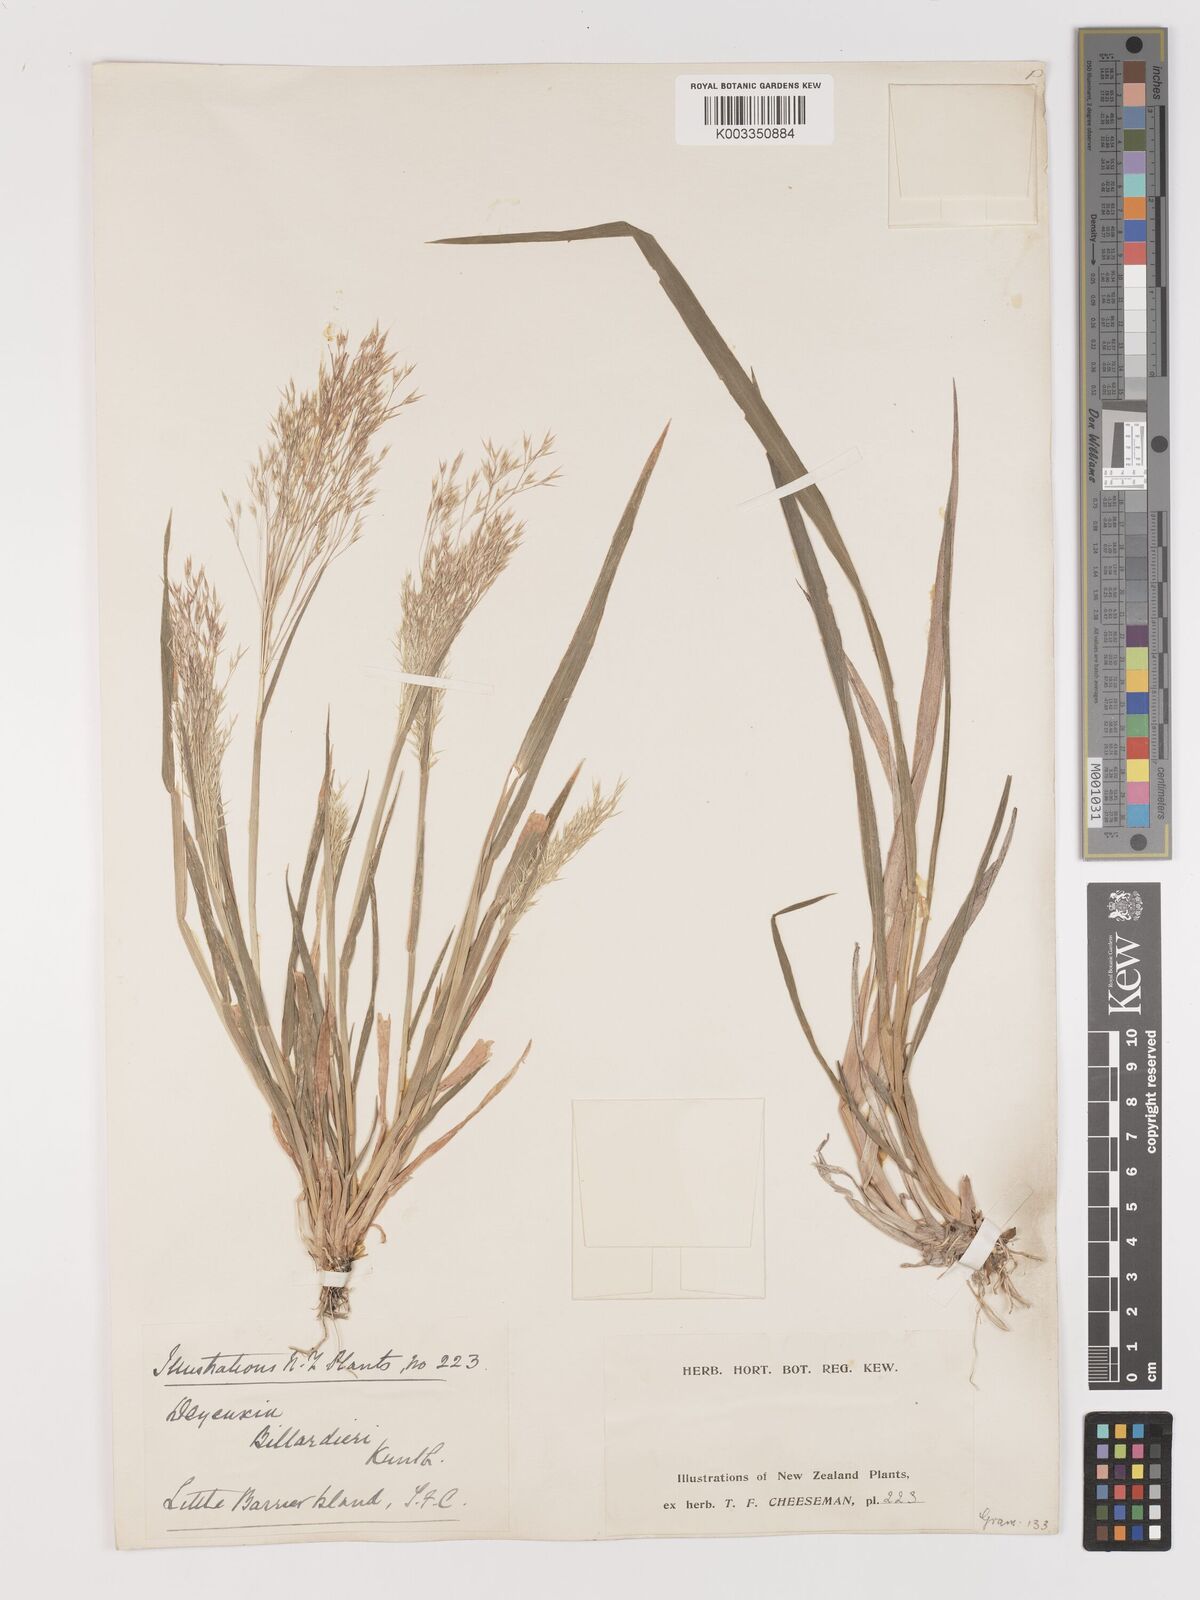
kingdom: Plantae
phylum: Tracheophyta
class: Liliopsida
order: Poales
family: Poaceae
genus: Lachnagrostis
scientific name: Lachnagrostis billardierei
